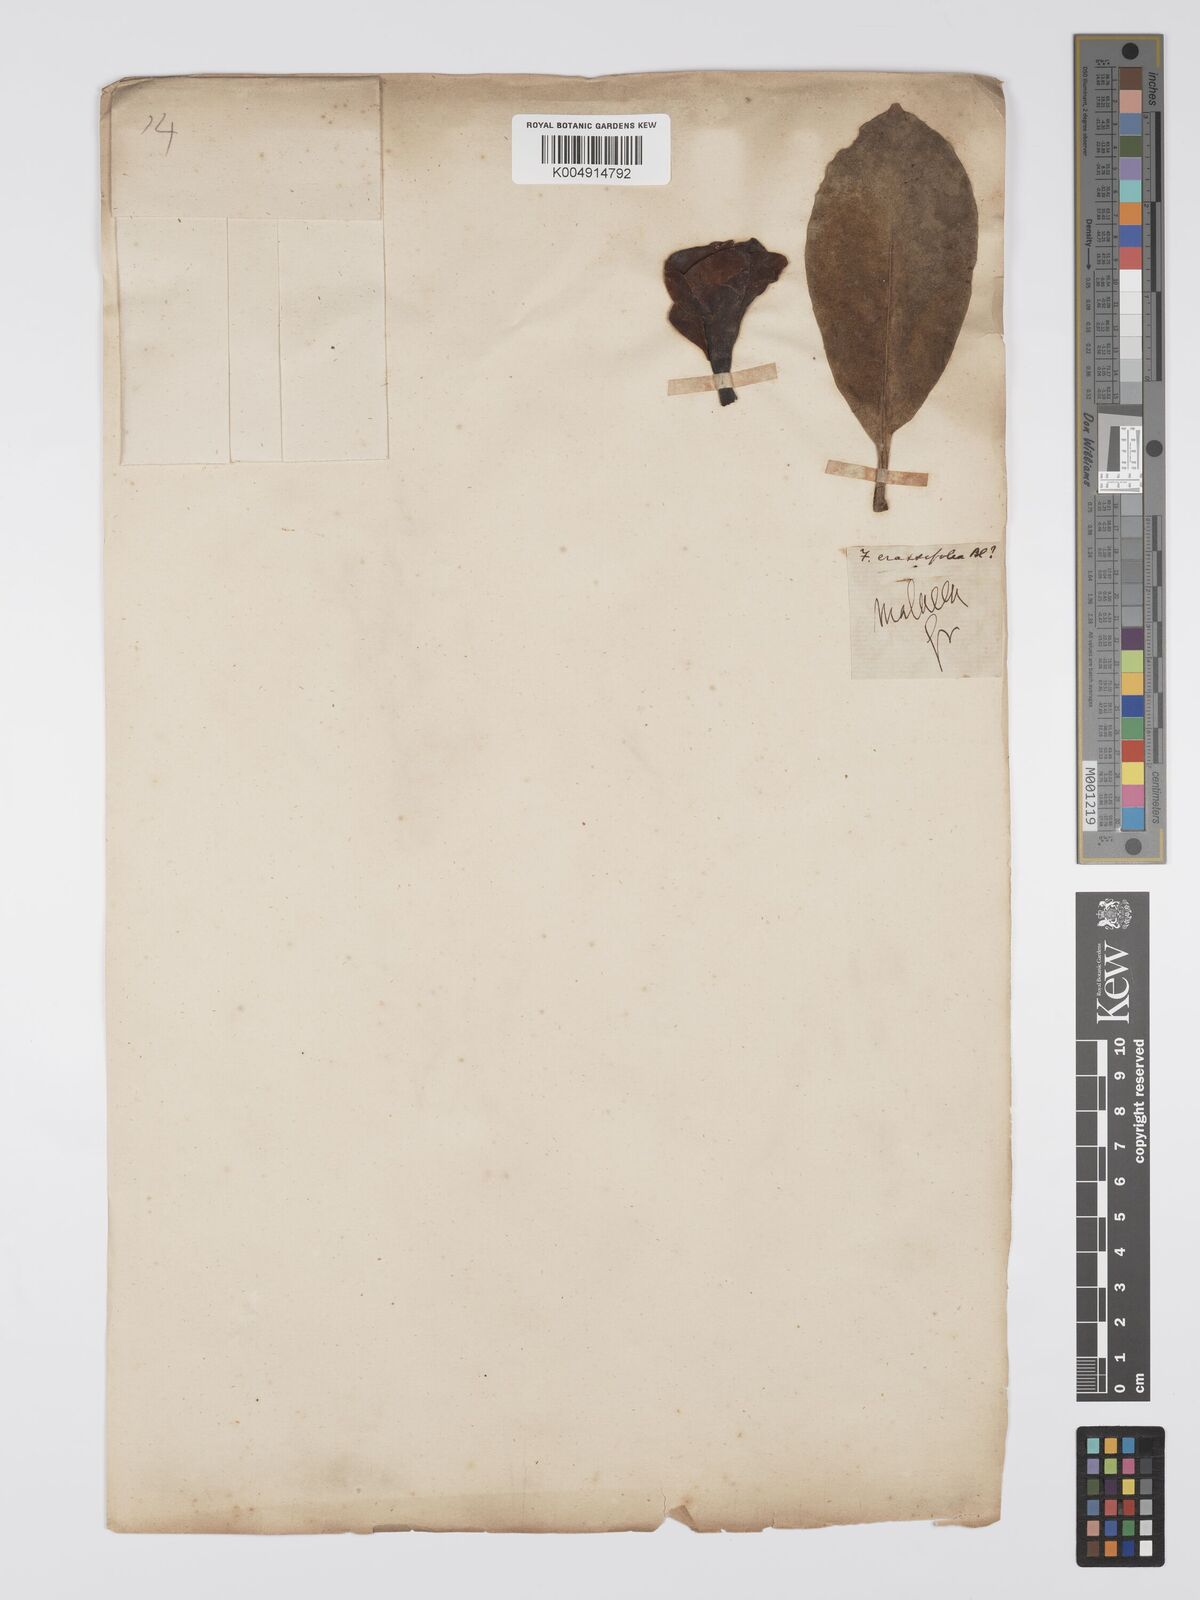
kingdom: Plantae
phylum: Tracheophyta
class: Magnoliopsida
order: Gentianales
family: Gentianaceae
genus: Fagraea
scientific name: Fagraea oblonga
